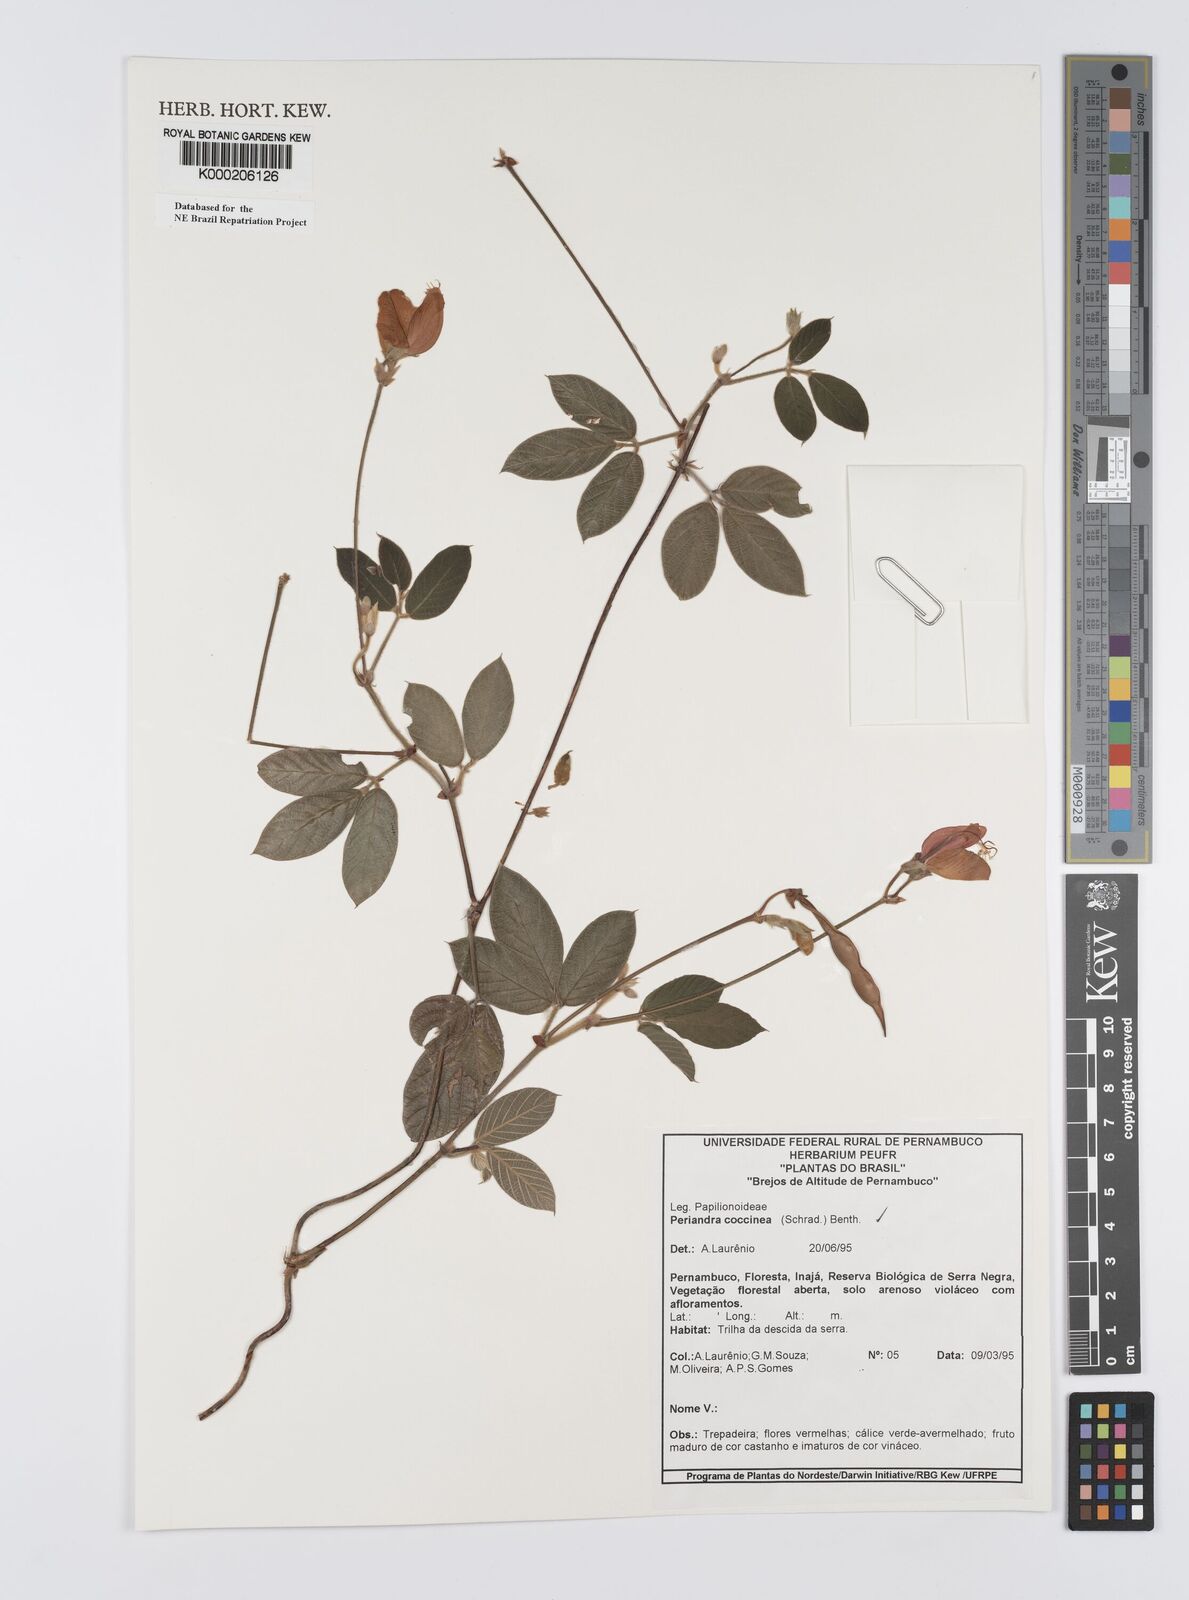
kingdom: Plantae
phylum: Tracheophyta
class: Magnoliopsida
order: Fabales
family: Fabaceae
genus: Periandra
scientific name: Periandra coccinea
